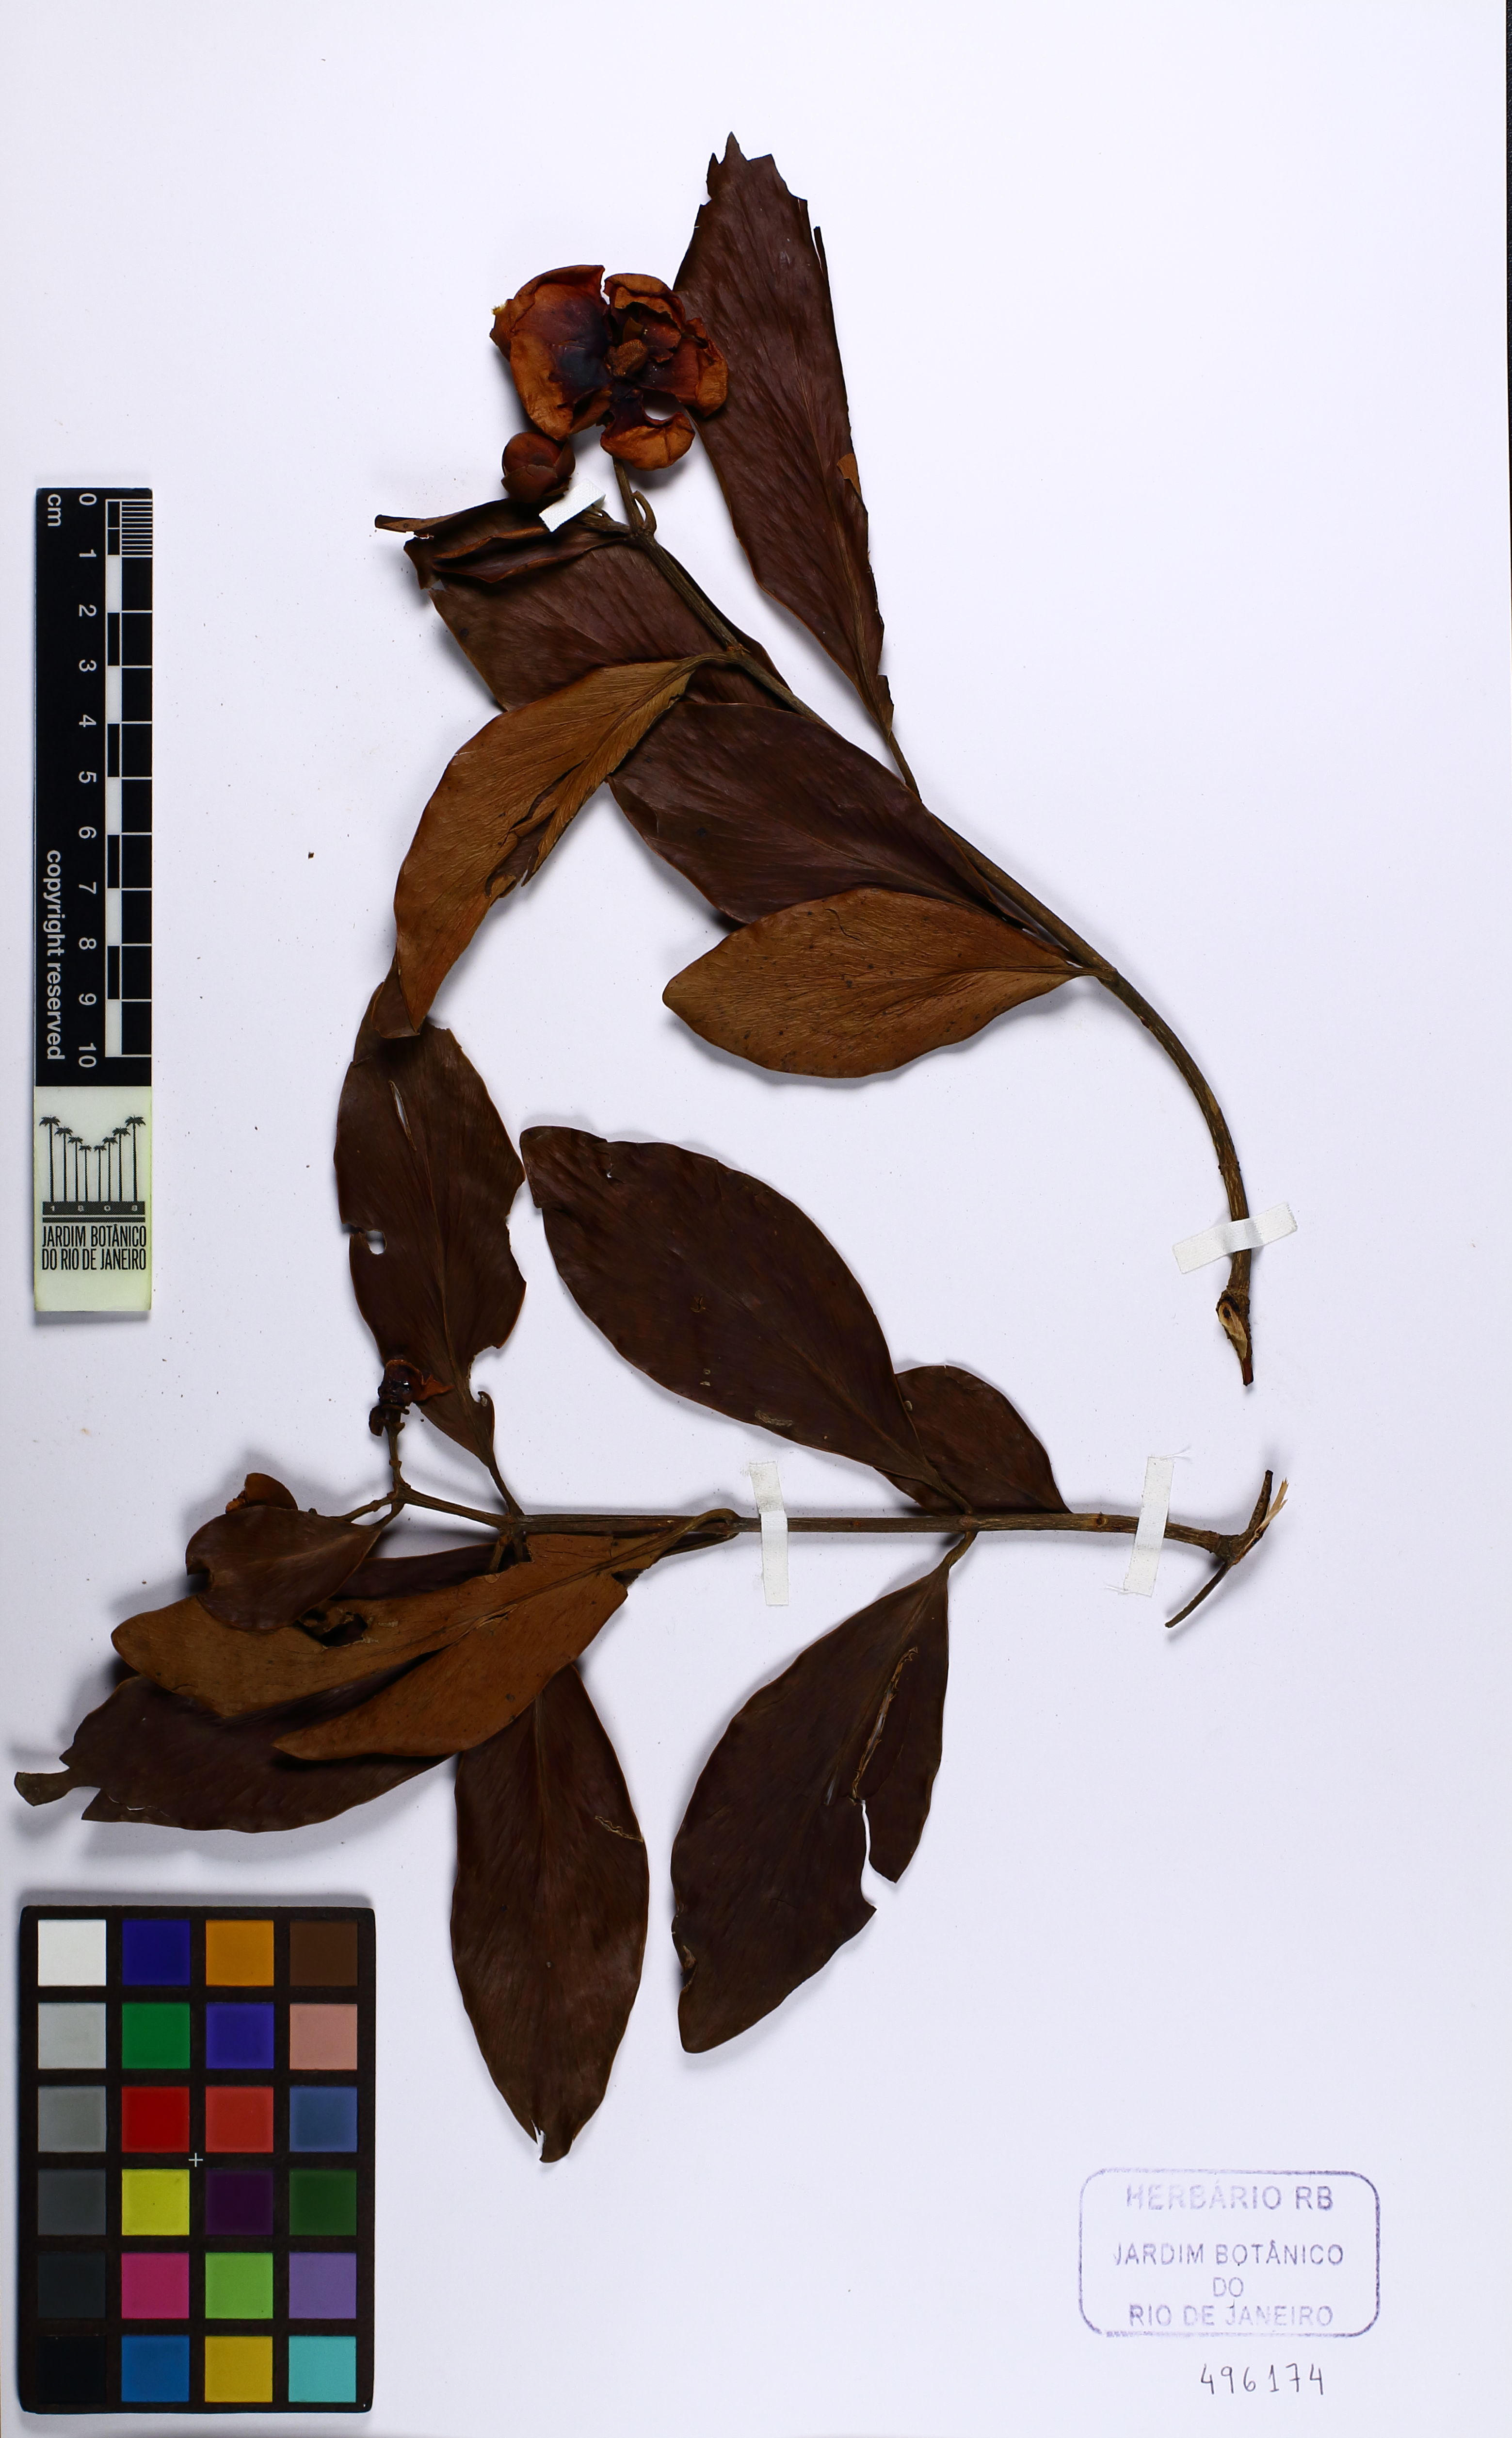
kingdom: Plantae
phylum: Tracheophyta
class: Magnoliopsida
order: Malpighiales
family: Clusiaceae
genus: Clusia
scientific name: Clusia lanceolata
